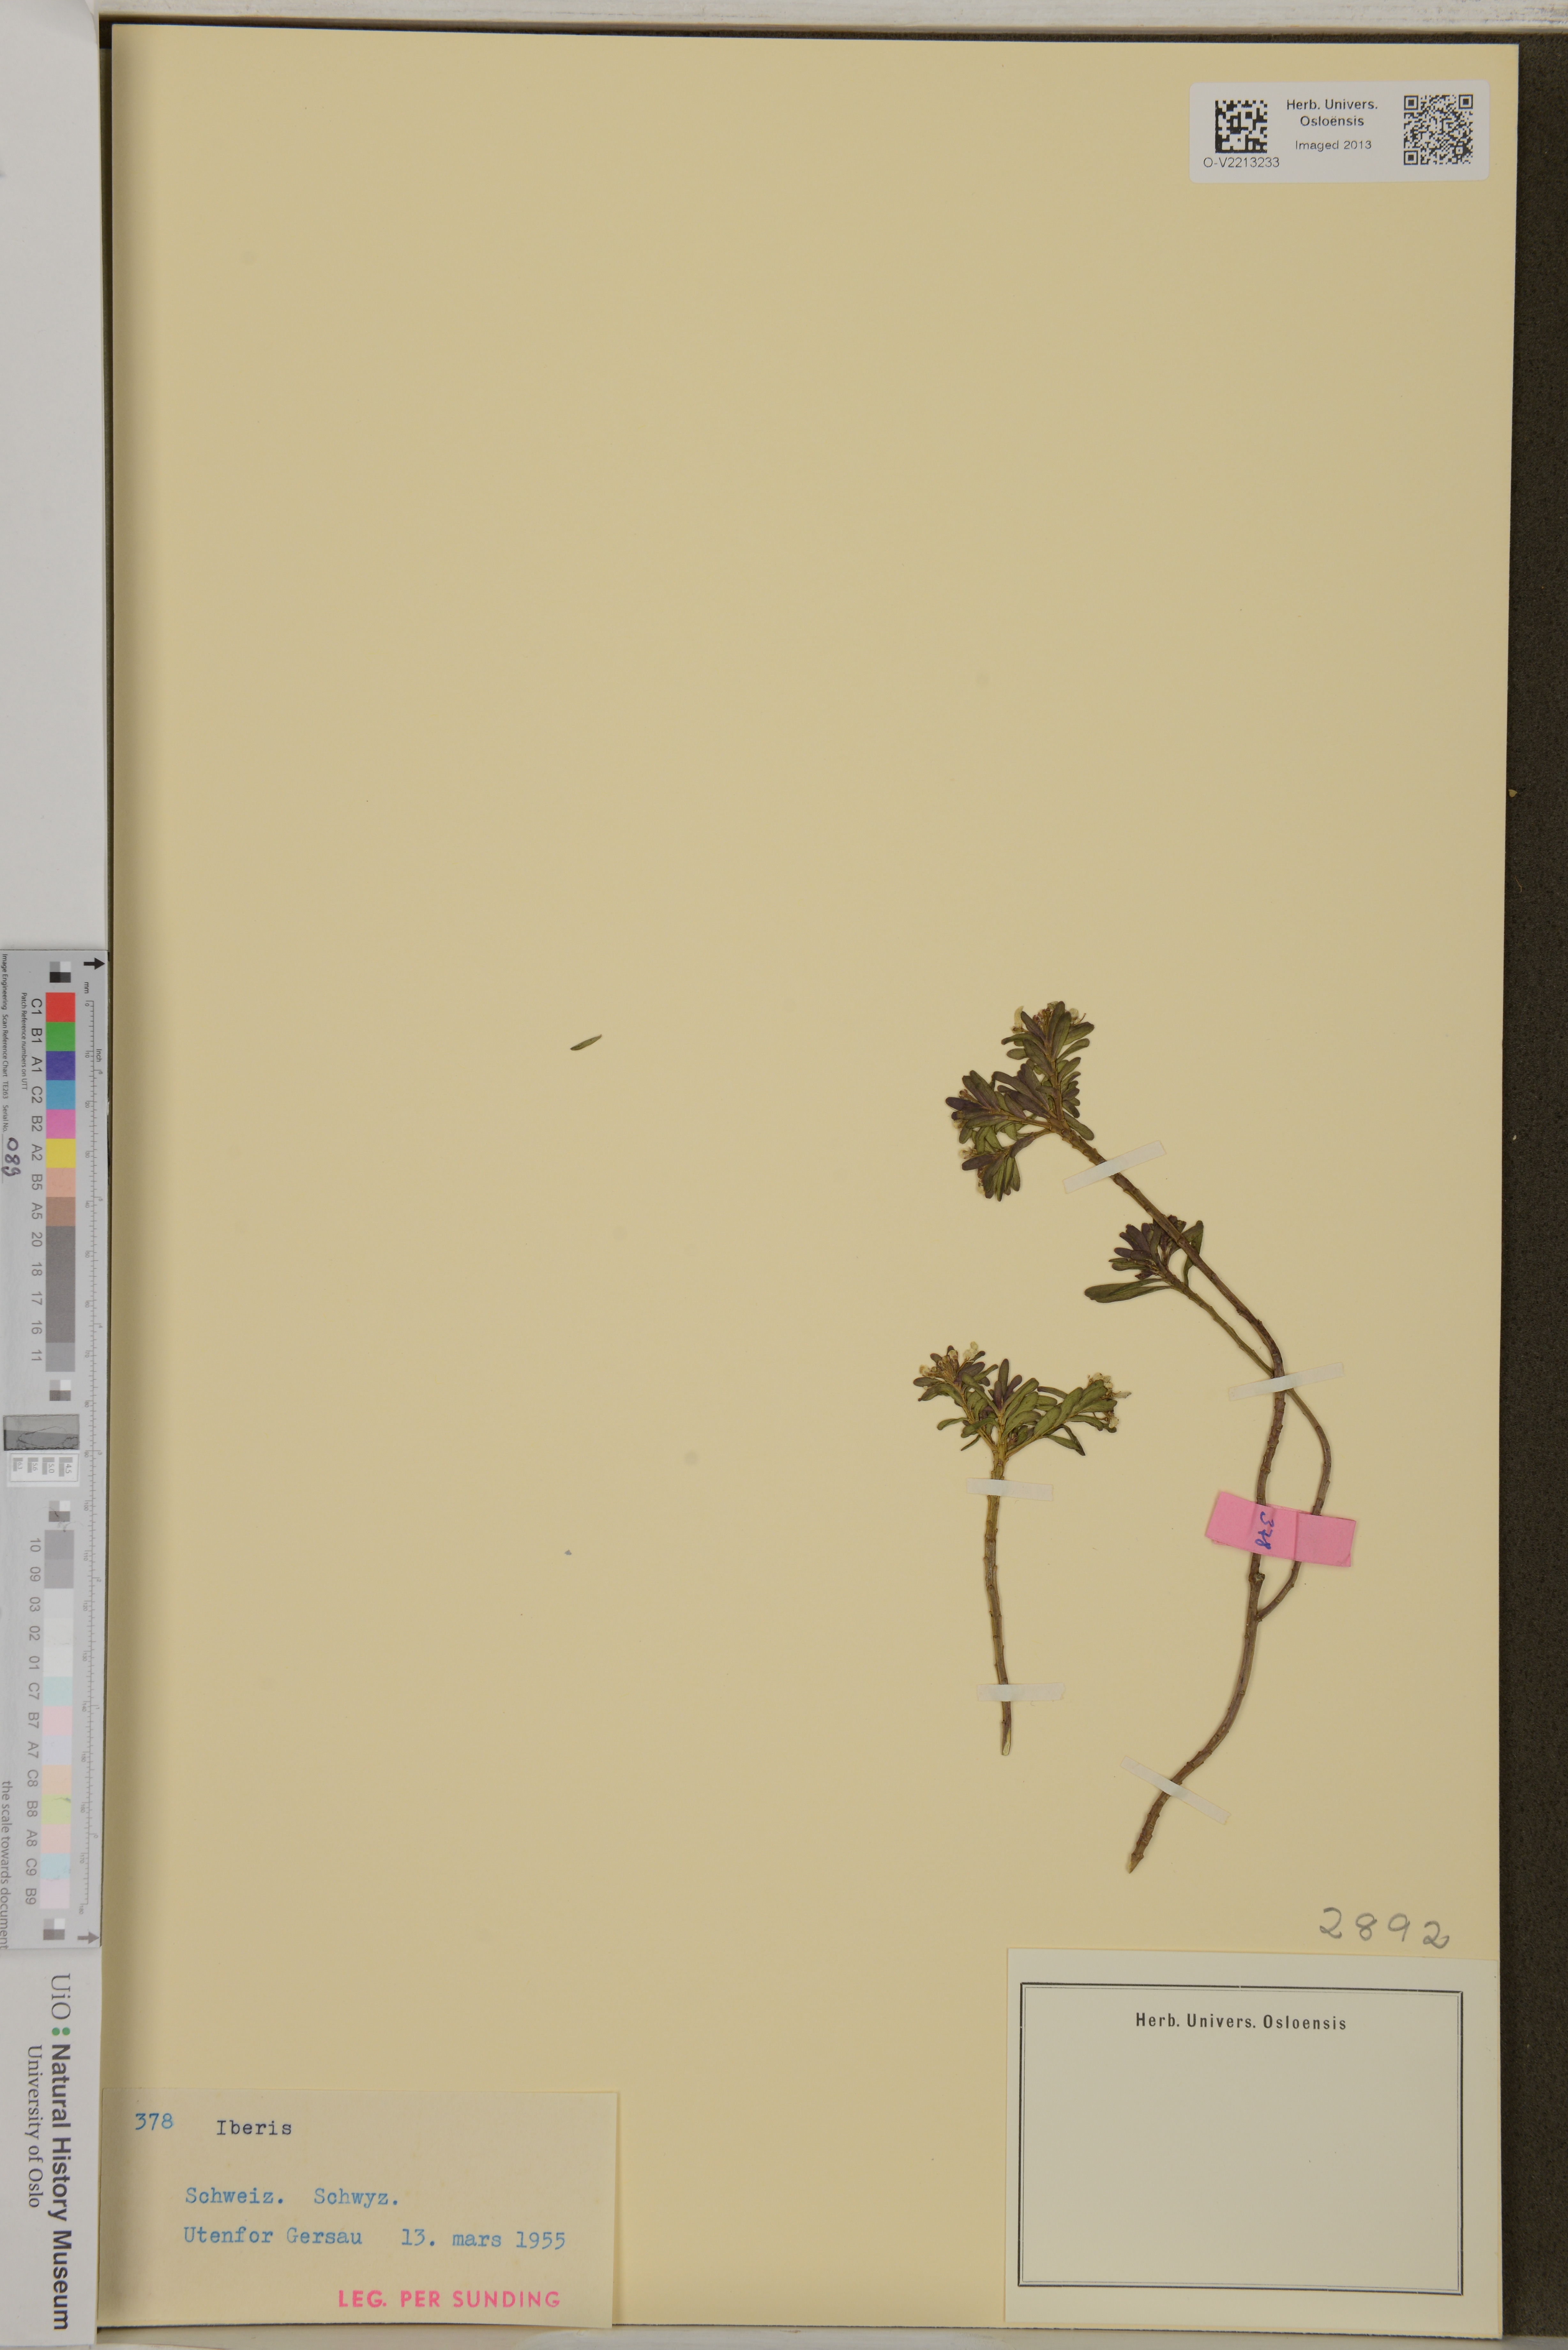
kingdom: Plantae
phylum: Tracheophyta
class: Magnoliopsida
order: Brassicales
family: Brassicaceae
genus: Iberis
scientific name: Iberis
